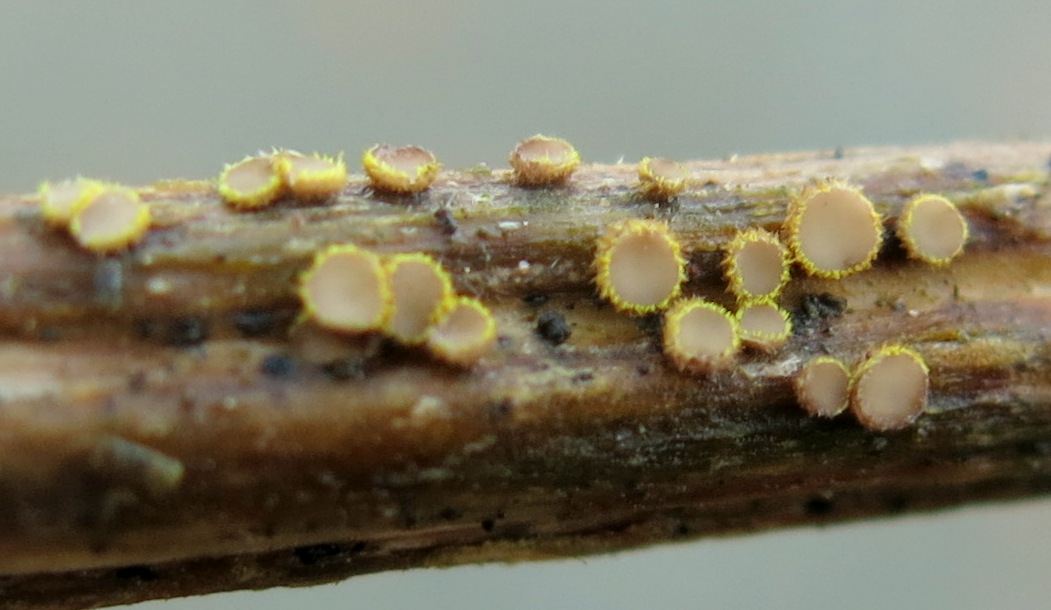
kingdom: Fungi
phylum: Ascomycota
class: Leotiomycetes
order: Helotiales
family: Lachnaceae
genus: Trichopeziza
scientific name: Trichopeziza
